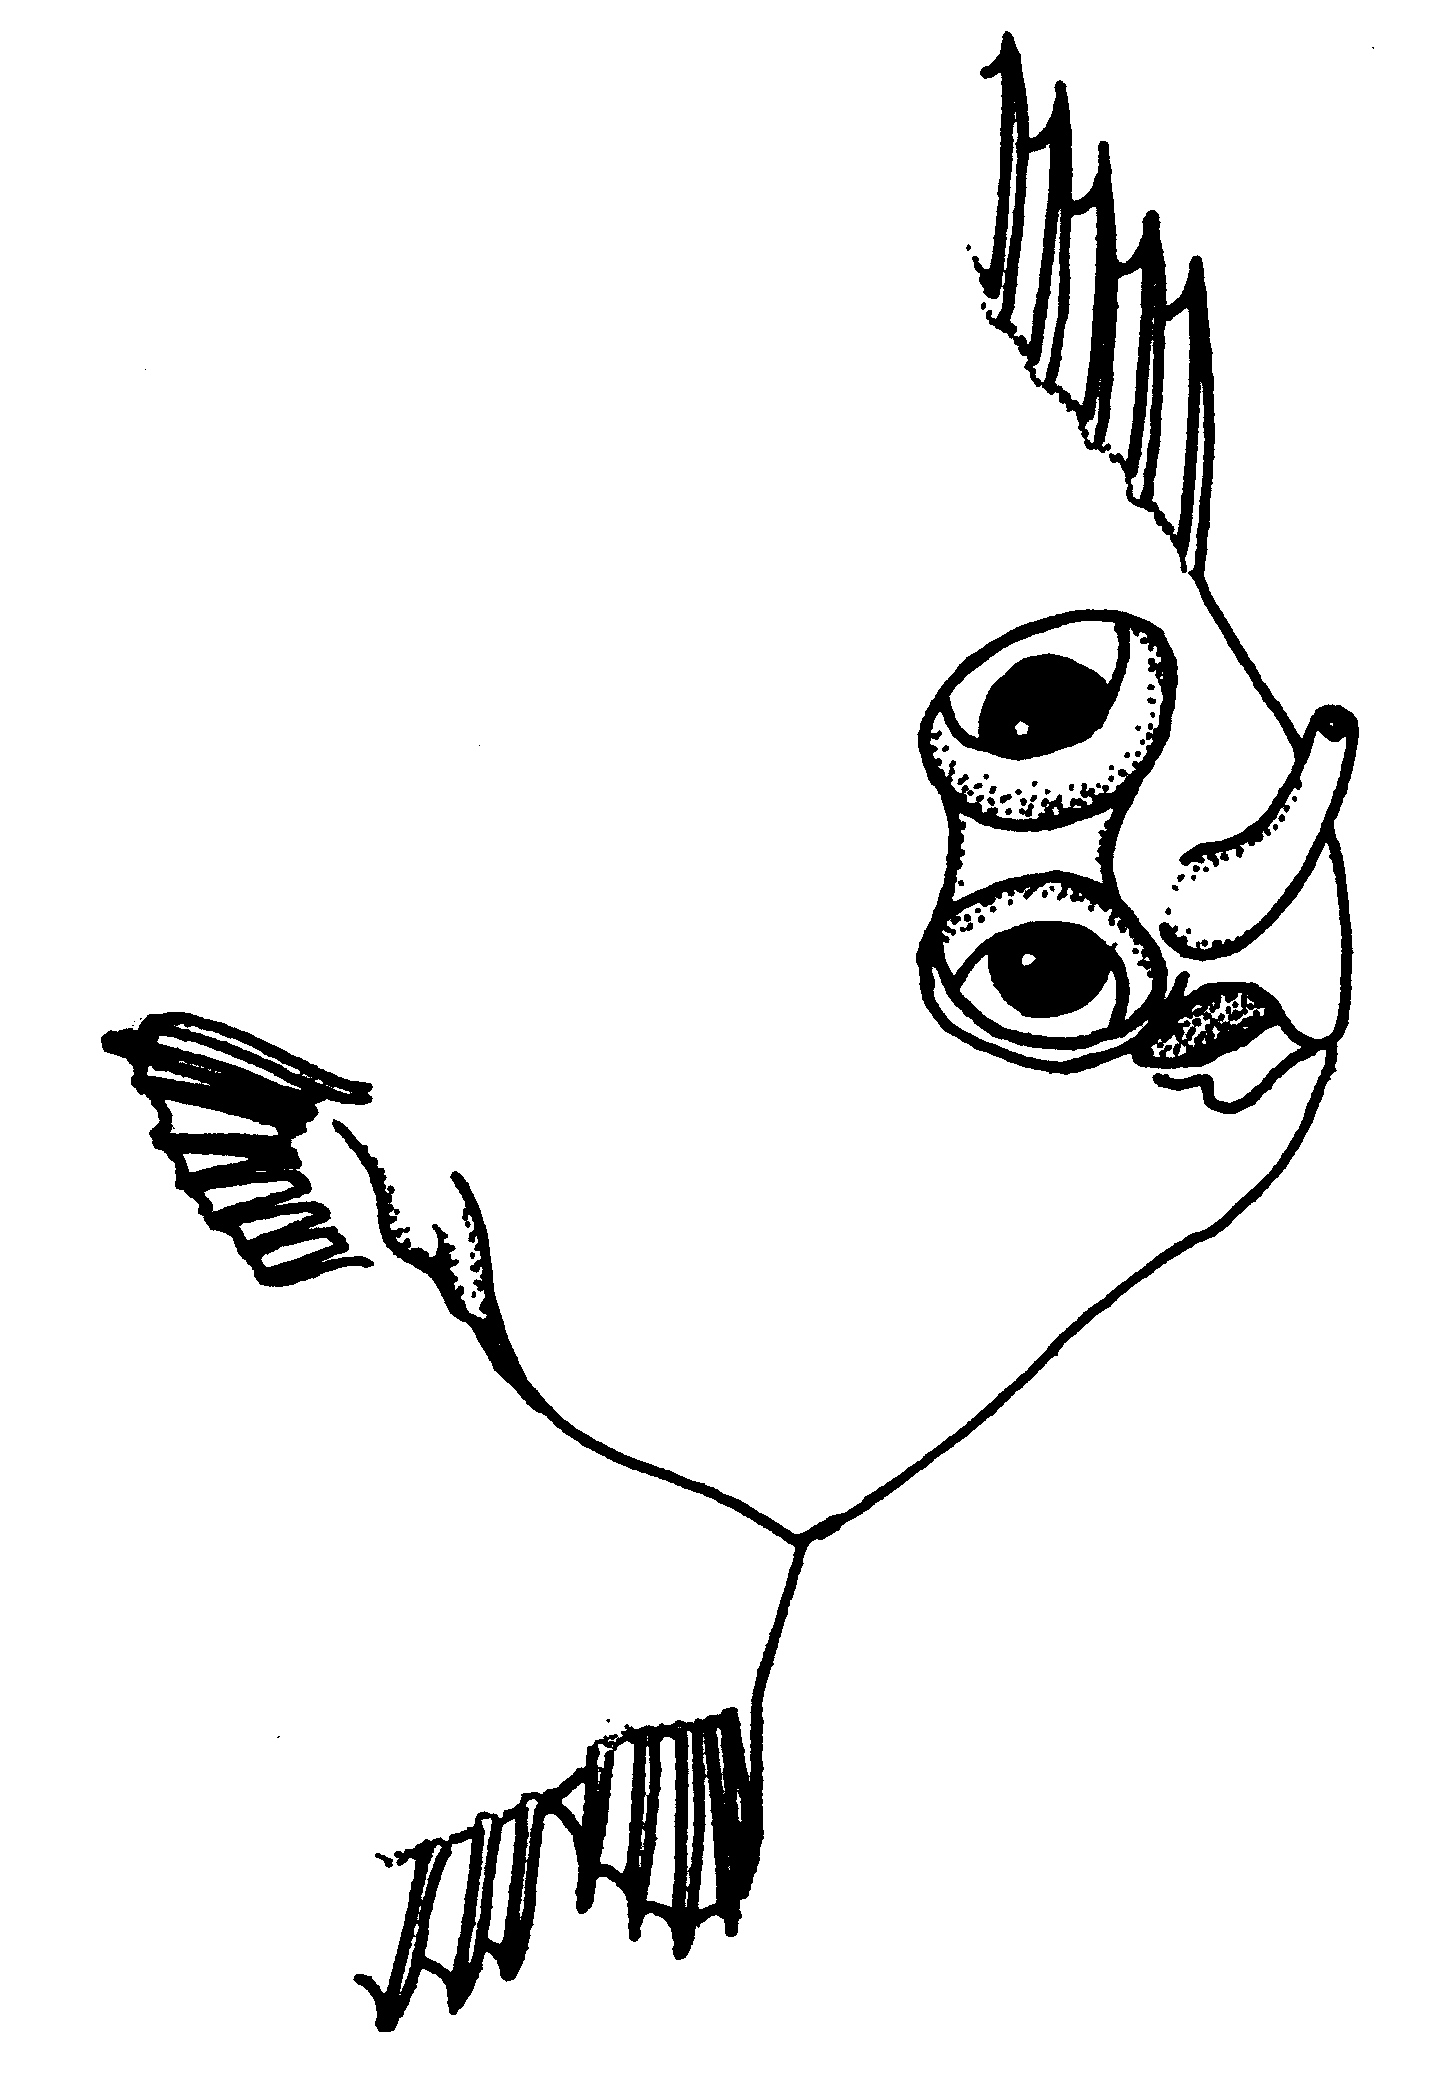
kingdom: Animalia
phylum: Chordata
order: Pleuronectiformes
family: Soleidae
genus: Soleichthys
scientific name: Soleichthys heterorhinos
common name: Banded sole
